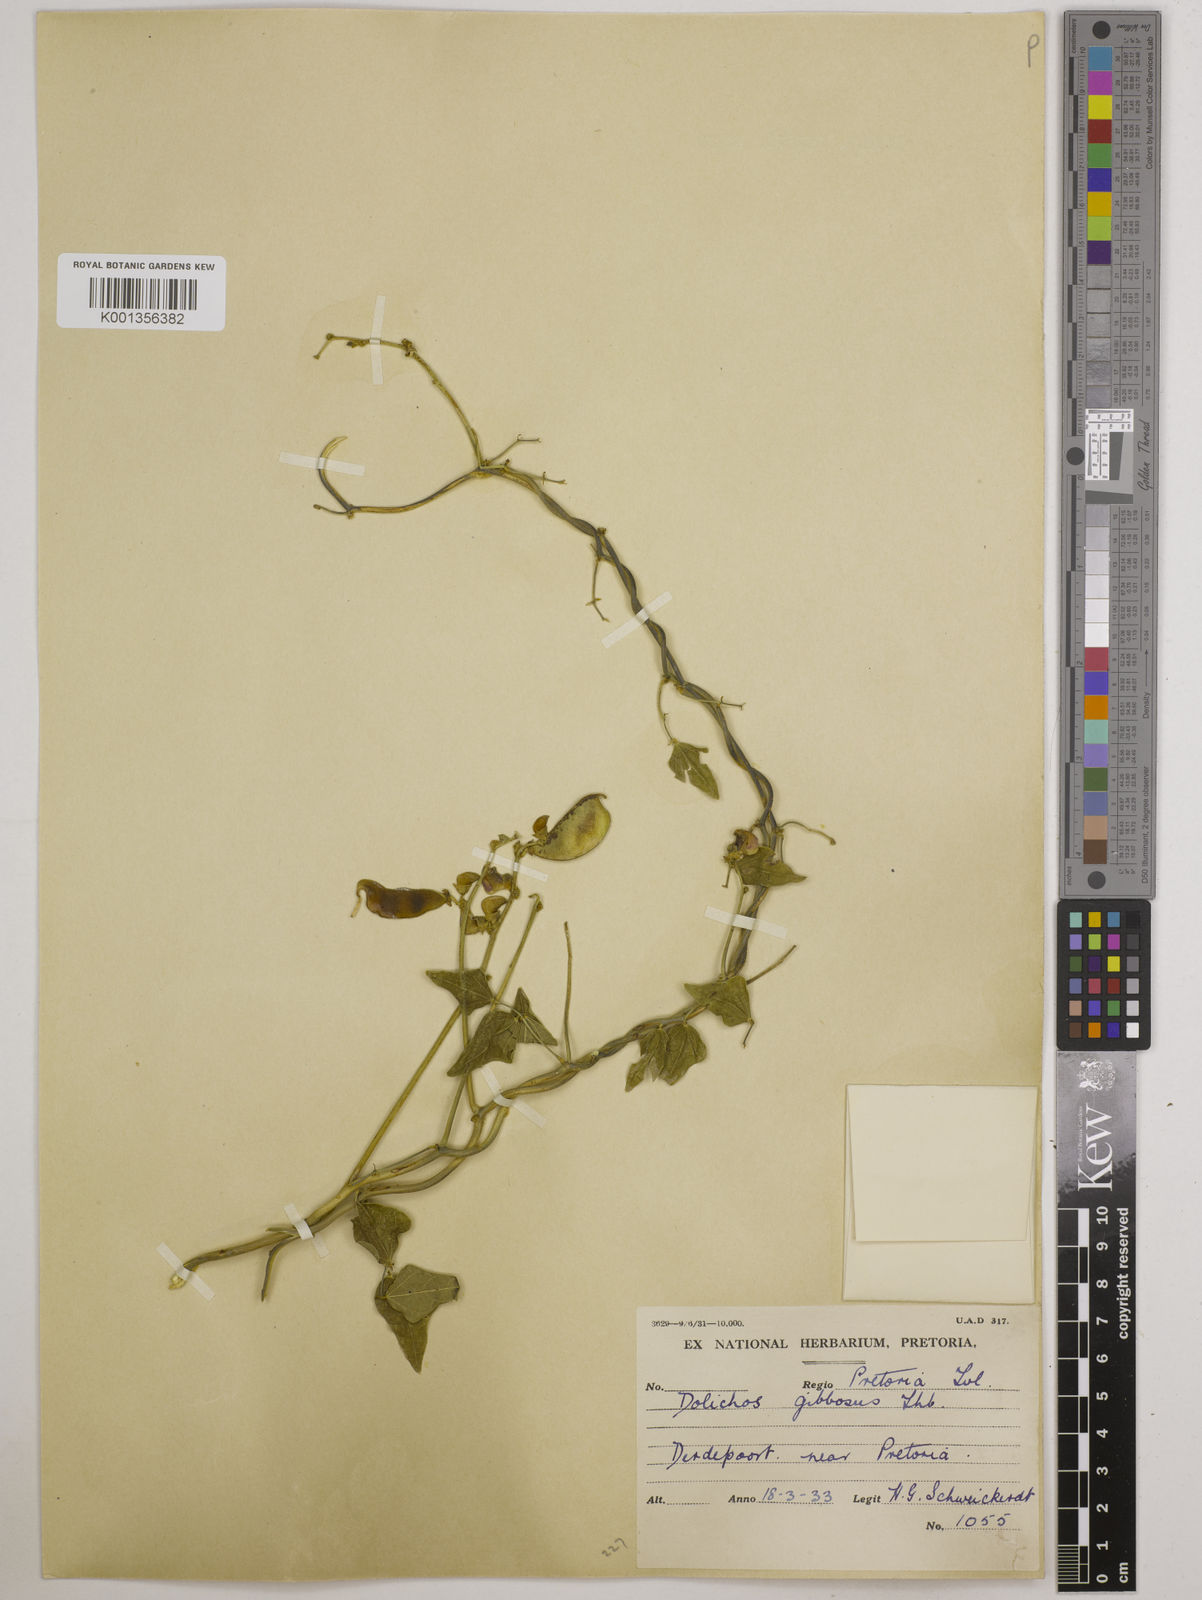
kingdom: Plantae
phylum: Tracheophyta
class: Magnoliopsida
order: Fabales
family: Fabaceae
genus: Lablab
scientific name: Lablab purpureus
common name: Lablab-bean
